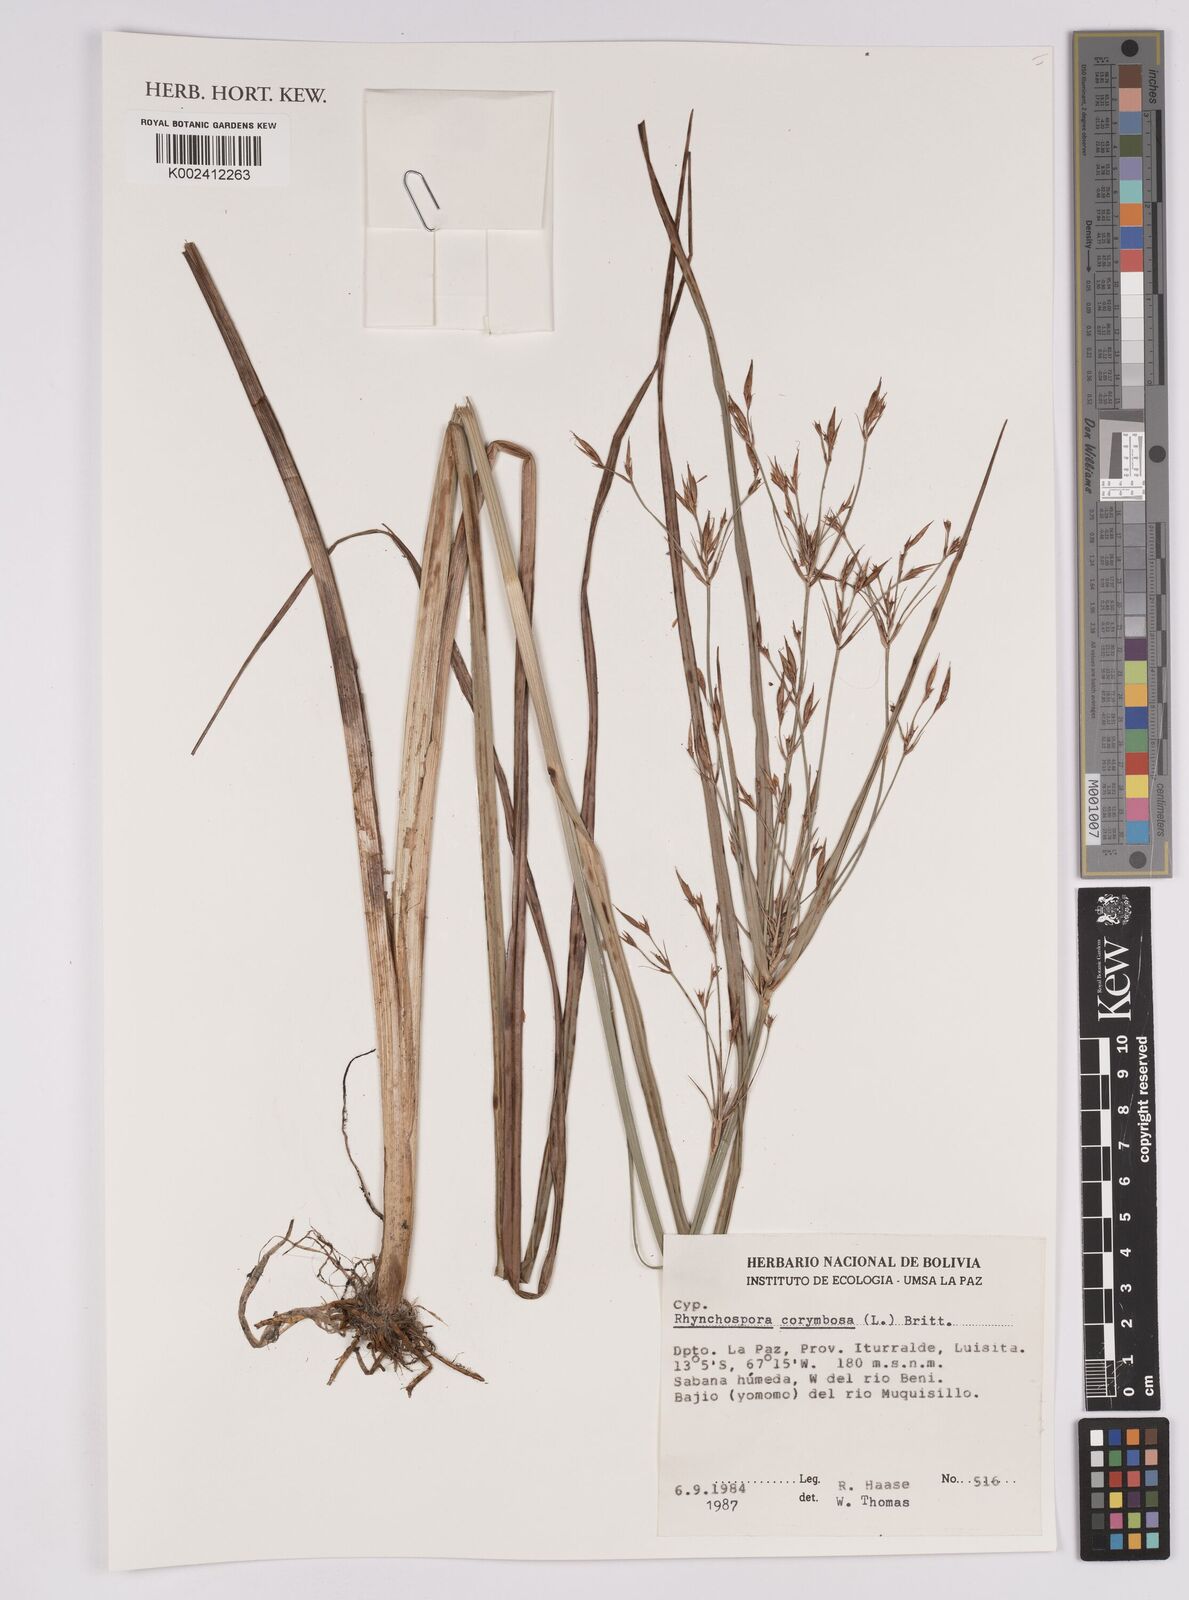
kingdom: Plantae
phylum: Tracheophyta
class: Liliopsida
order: Poales
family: Cyperaceae
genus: Rhynchospora
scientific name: Rhynchospora corymbosa
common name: Golden beak sedge
